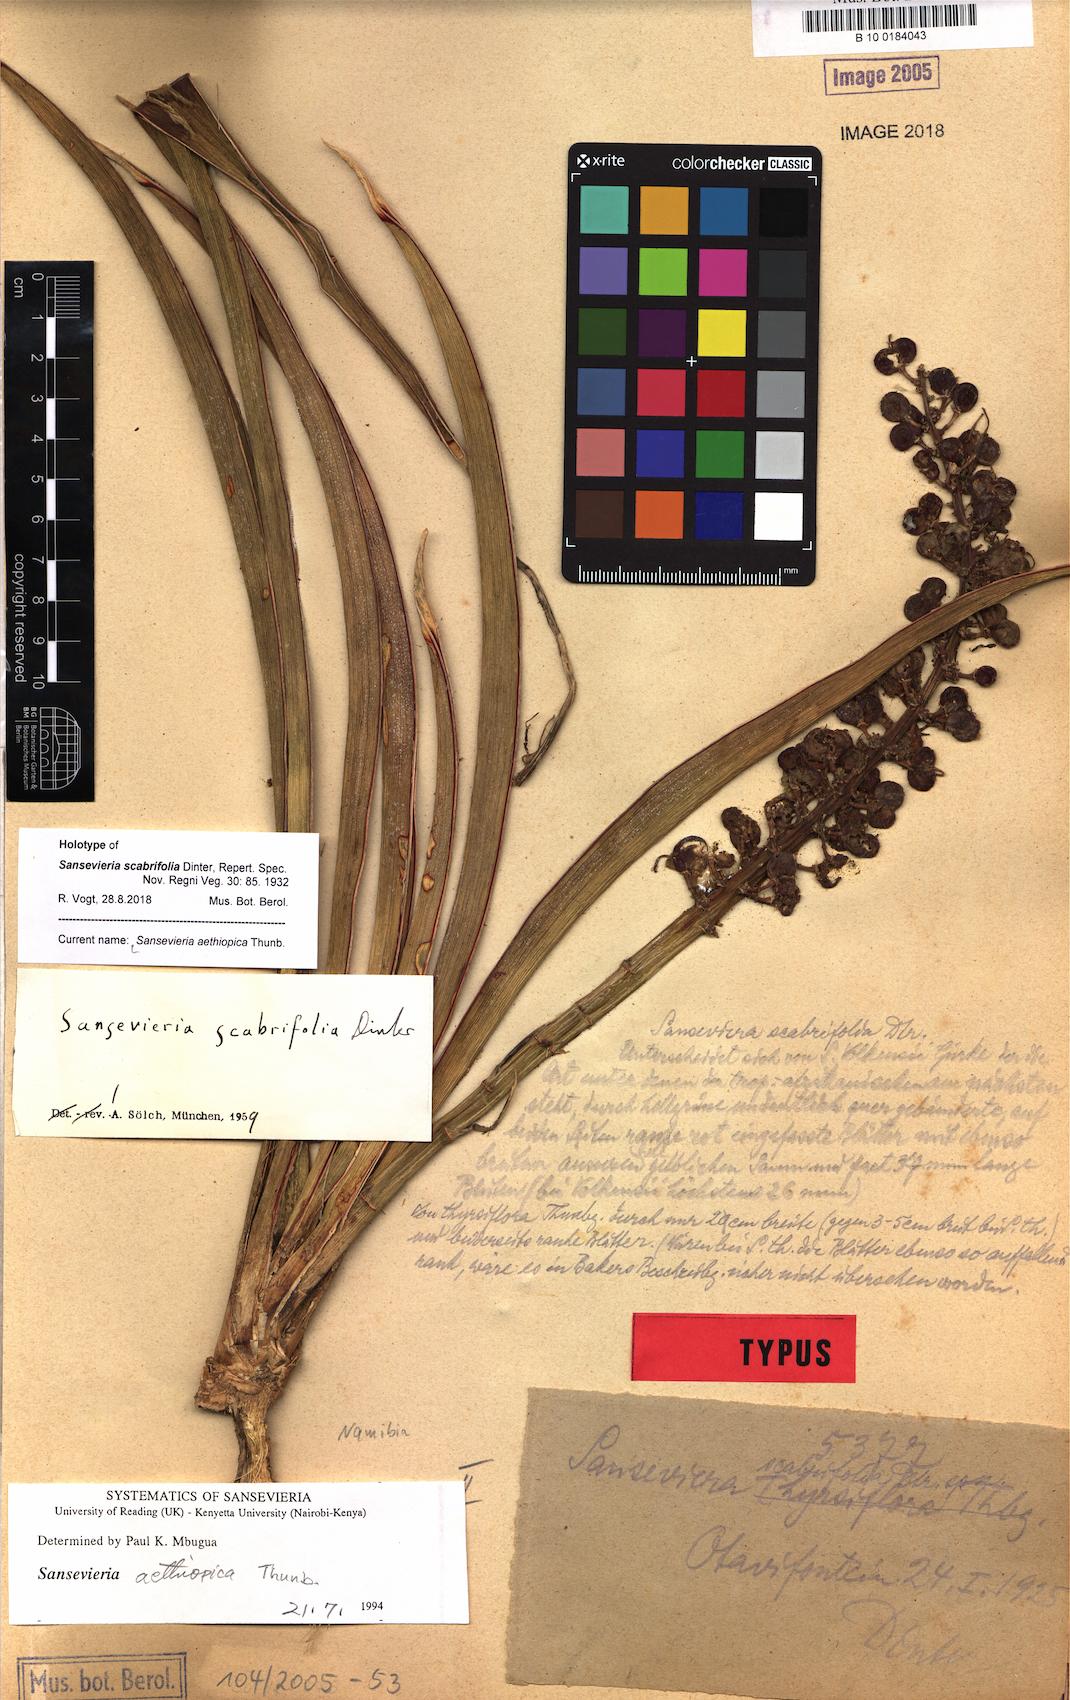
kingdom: Plantae
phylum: Tracheophyta
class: Liliopsida
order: Asparagales
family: Asparagaceae
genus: Dracaena
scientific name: Dracaena aethiopica
